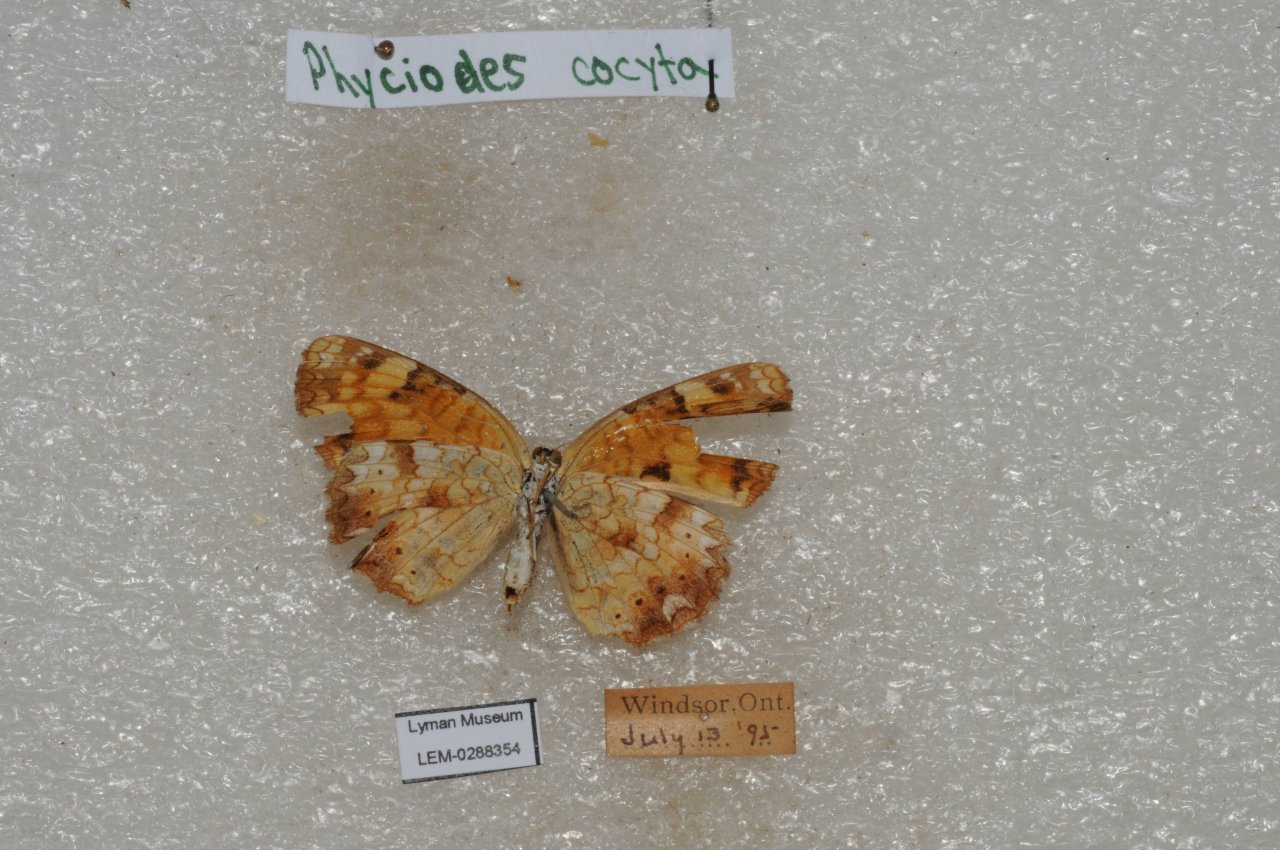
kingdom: Animalia
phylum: Arthropoda
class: Insecta
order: Lepidoptera
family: Nymphalidae
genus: Phyciodes
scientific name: Phyciodes tharos
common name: Northern Crescent
